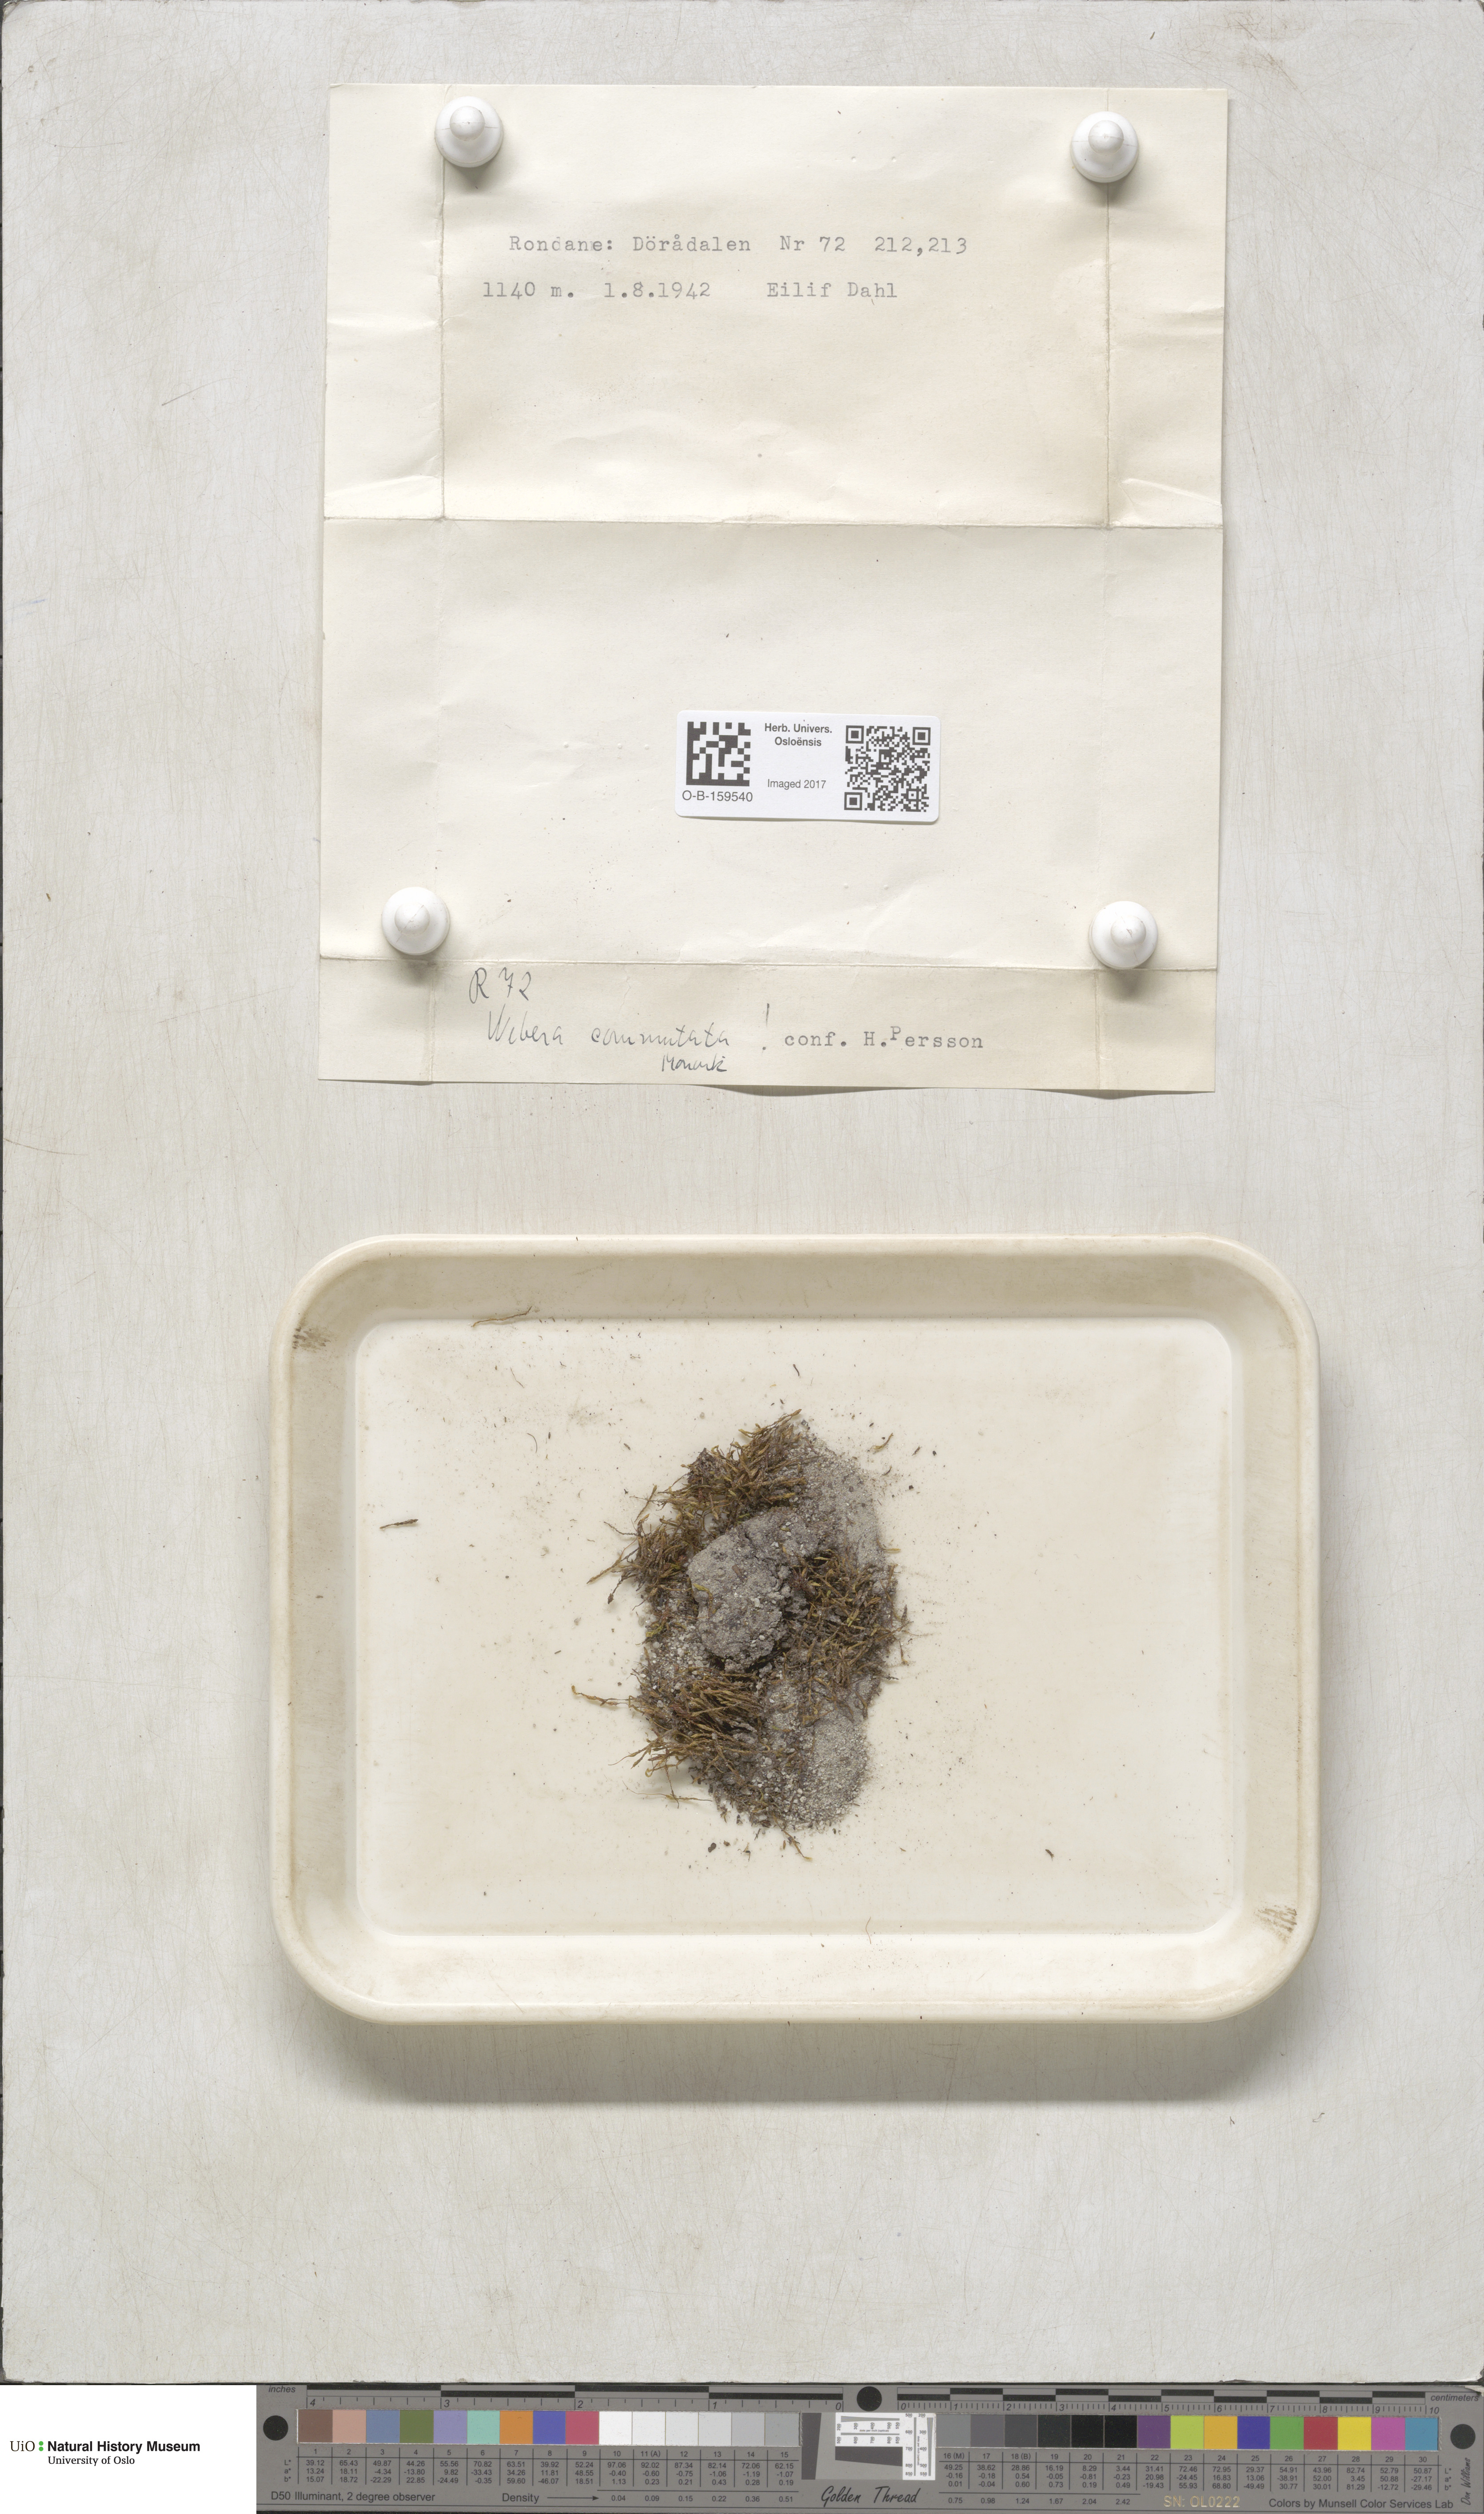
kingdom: Plantae
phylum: Bryophyta
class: Bryopsida
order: Bryales
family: Mniaceae
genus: Pohlia
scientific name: Pohlia drummondii
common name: Drummond's nodding moss
